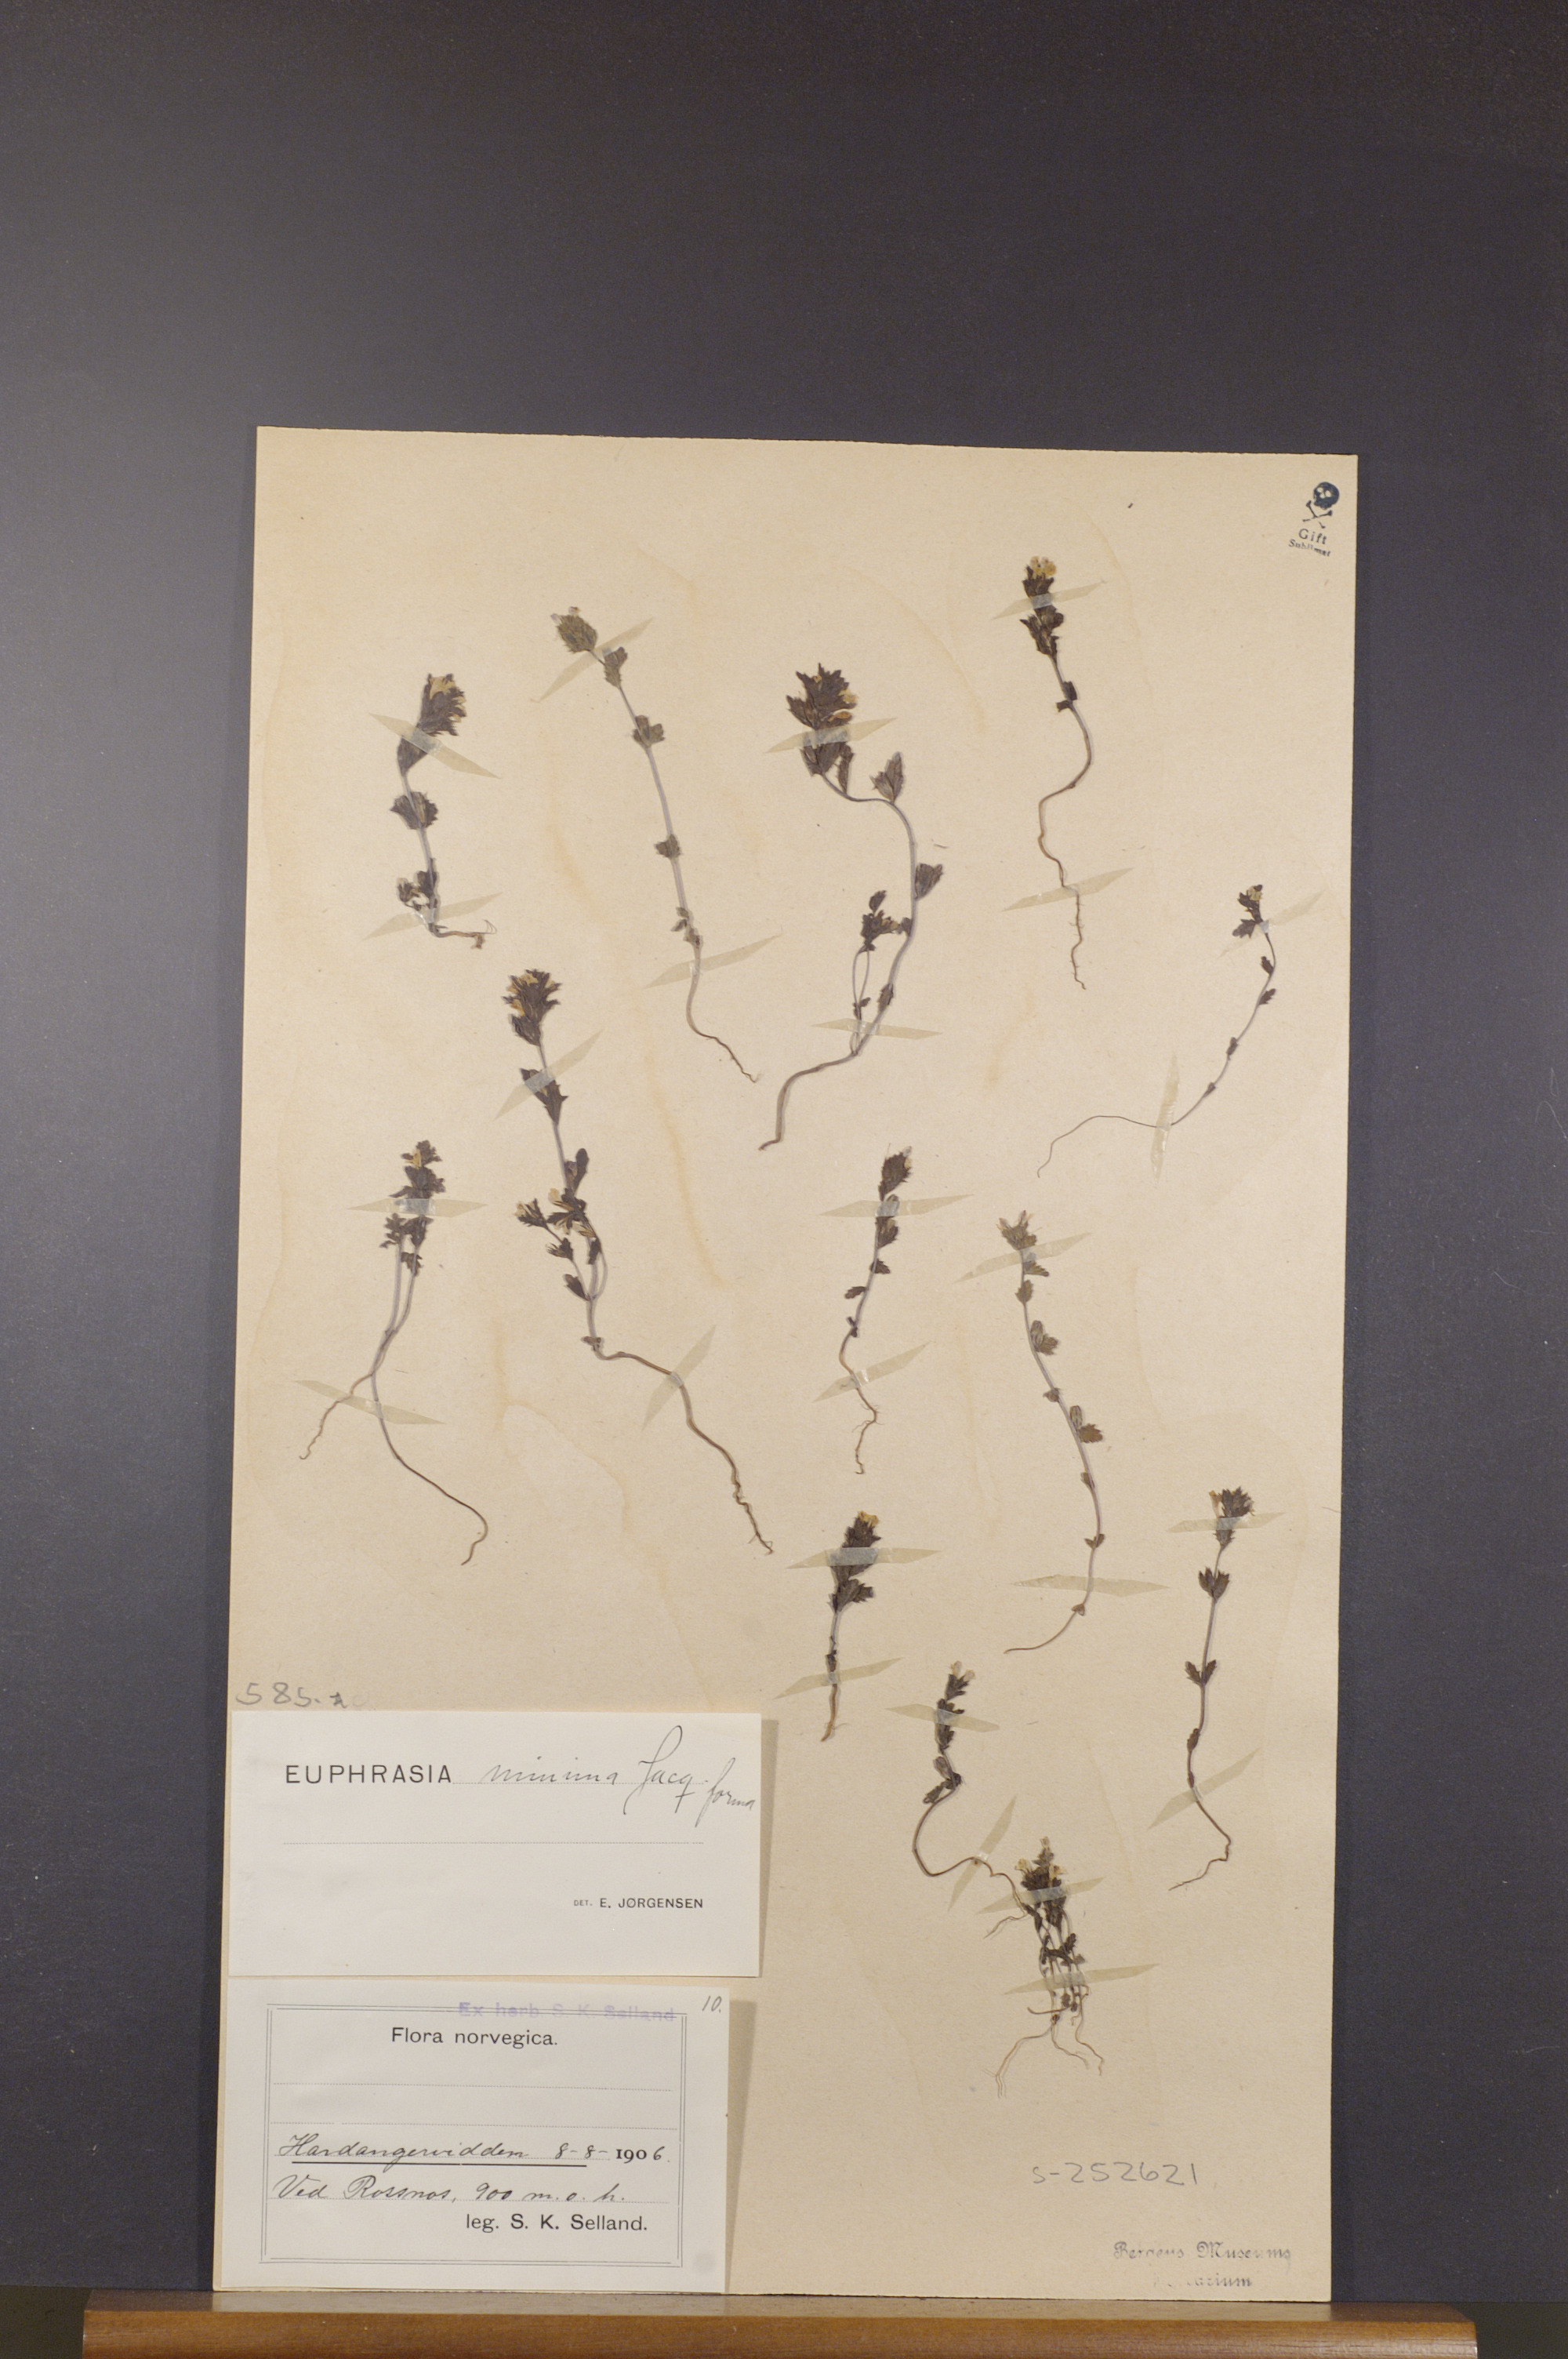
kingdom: Plantae
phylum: Tracheophyta
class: Magnoliopsida
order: Lamiales
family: Orobanchaceae
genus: Euphrasia
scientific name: Euphrasia minima
